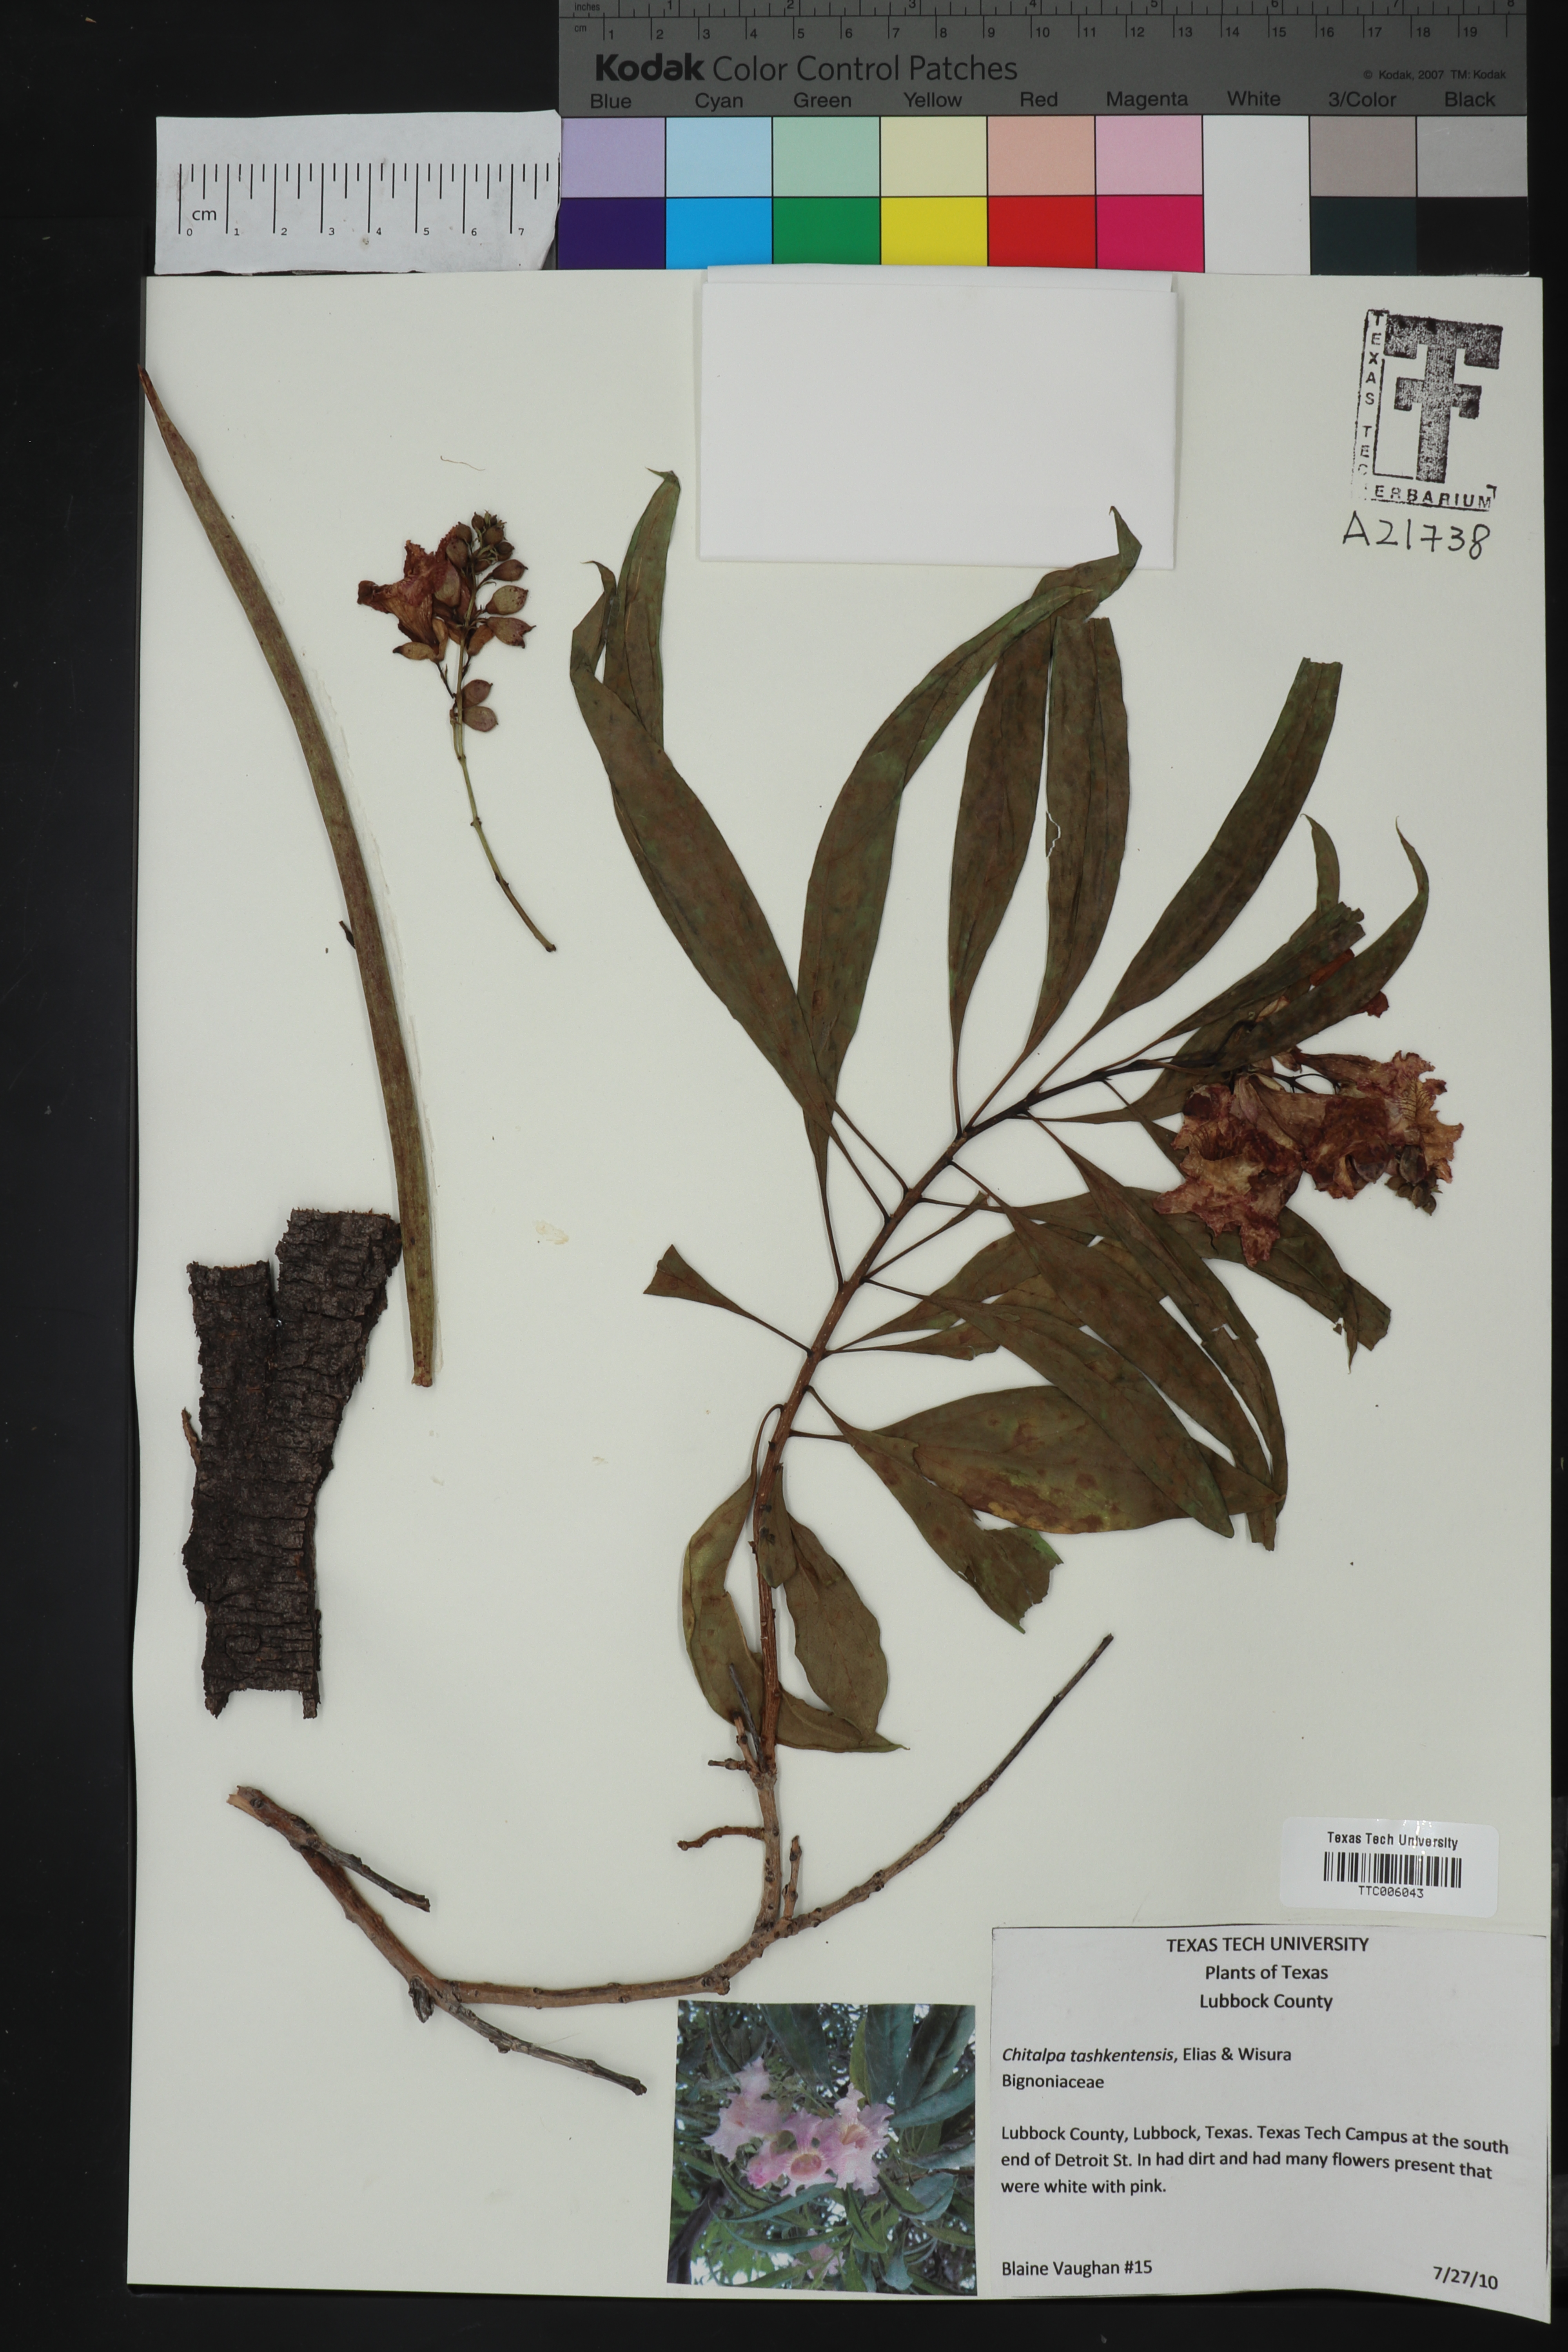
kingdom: Plantae
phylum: Tracheophyta
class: Magnoliopsida
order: Lamiales
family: Bignoniaceae
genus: Chitalpa
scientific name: Chitalpa tashkentensis
